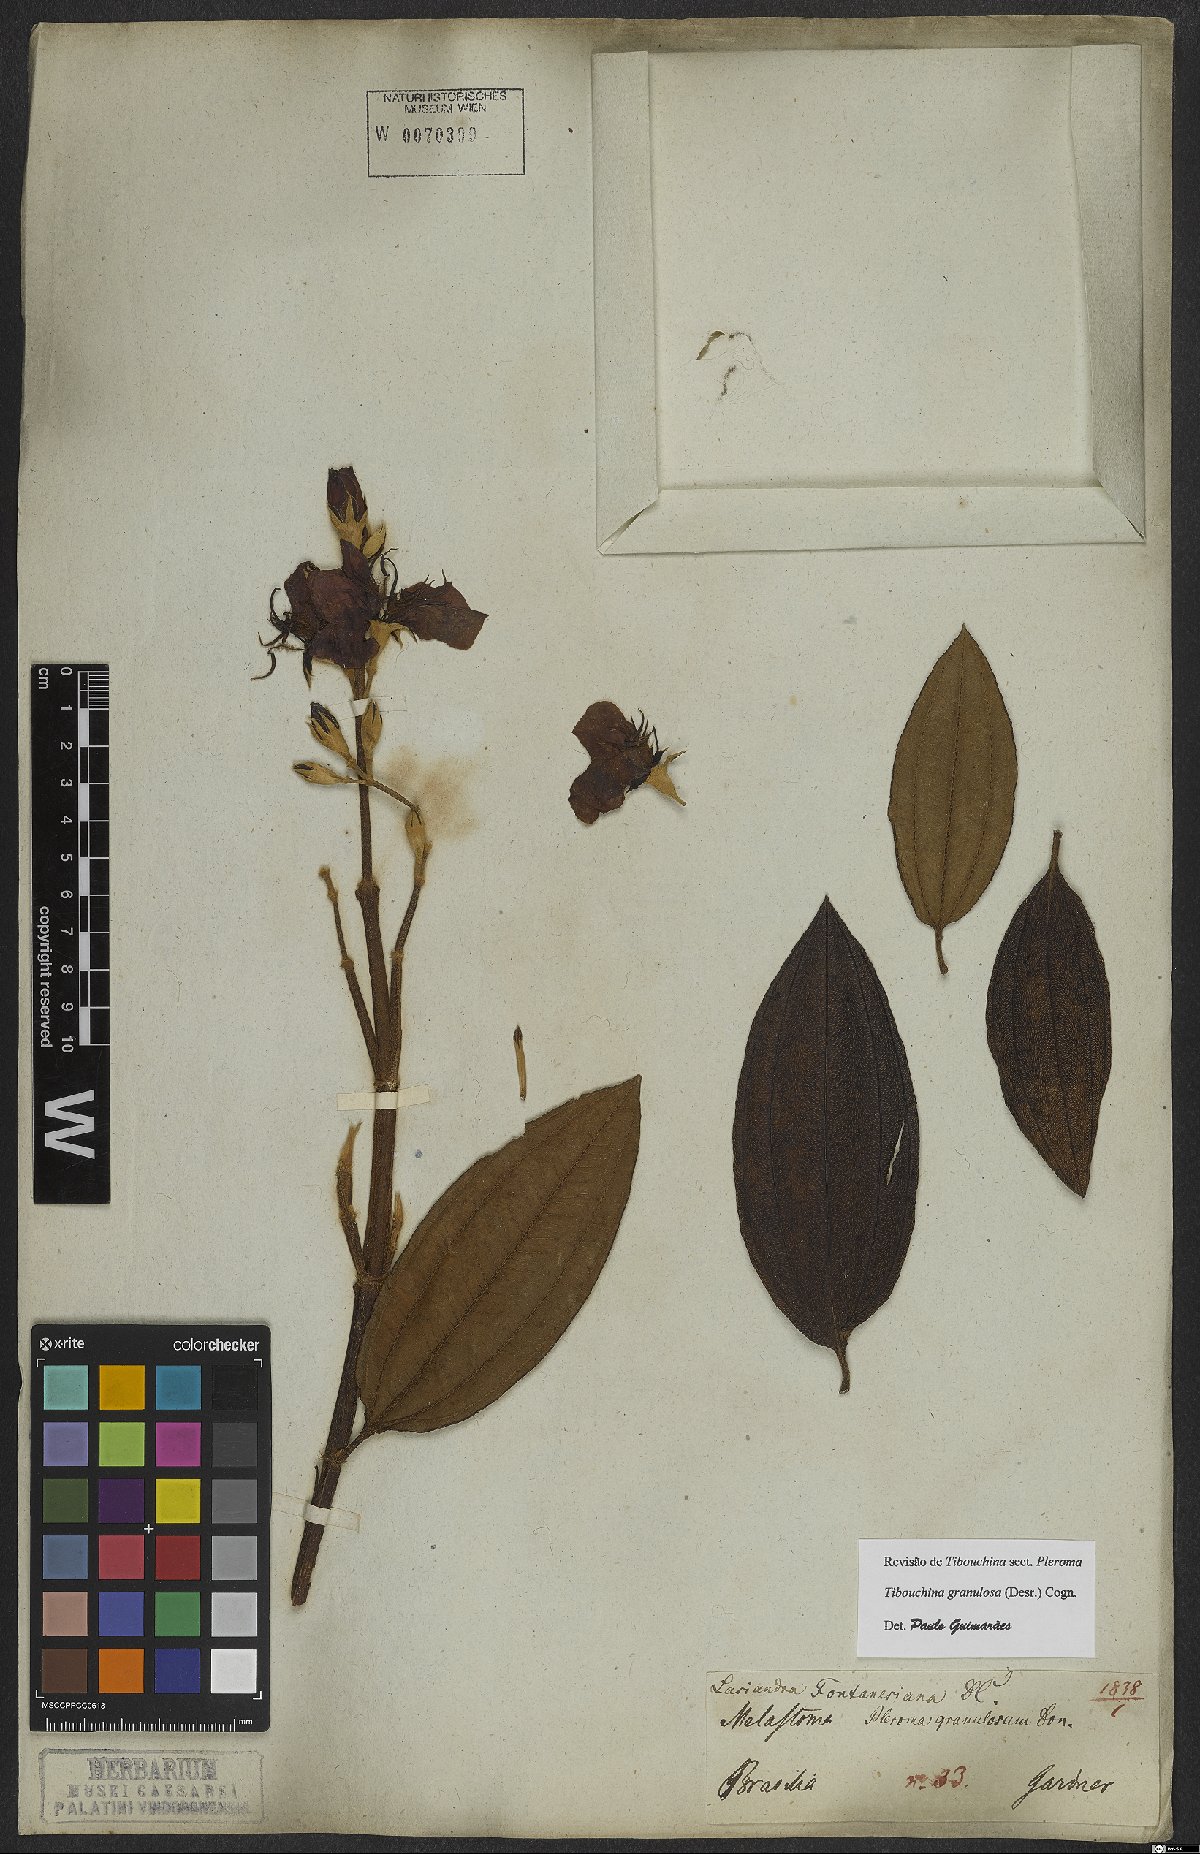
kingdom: Plantae
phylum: Tracheophyta
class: Magnoliopsida
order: Myrtales
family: Melastomataceae
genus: Pleroma
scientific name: Pleroma granulosum
